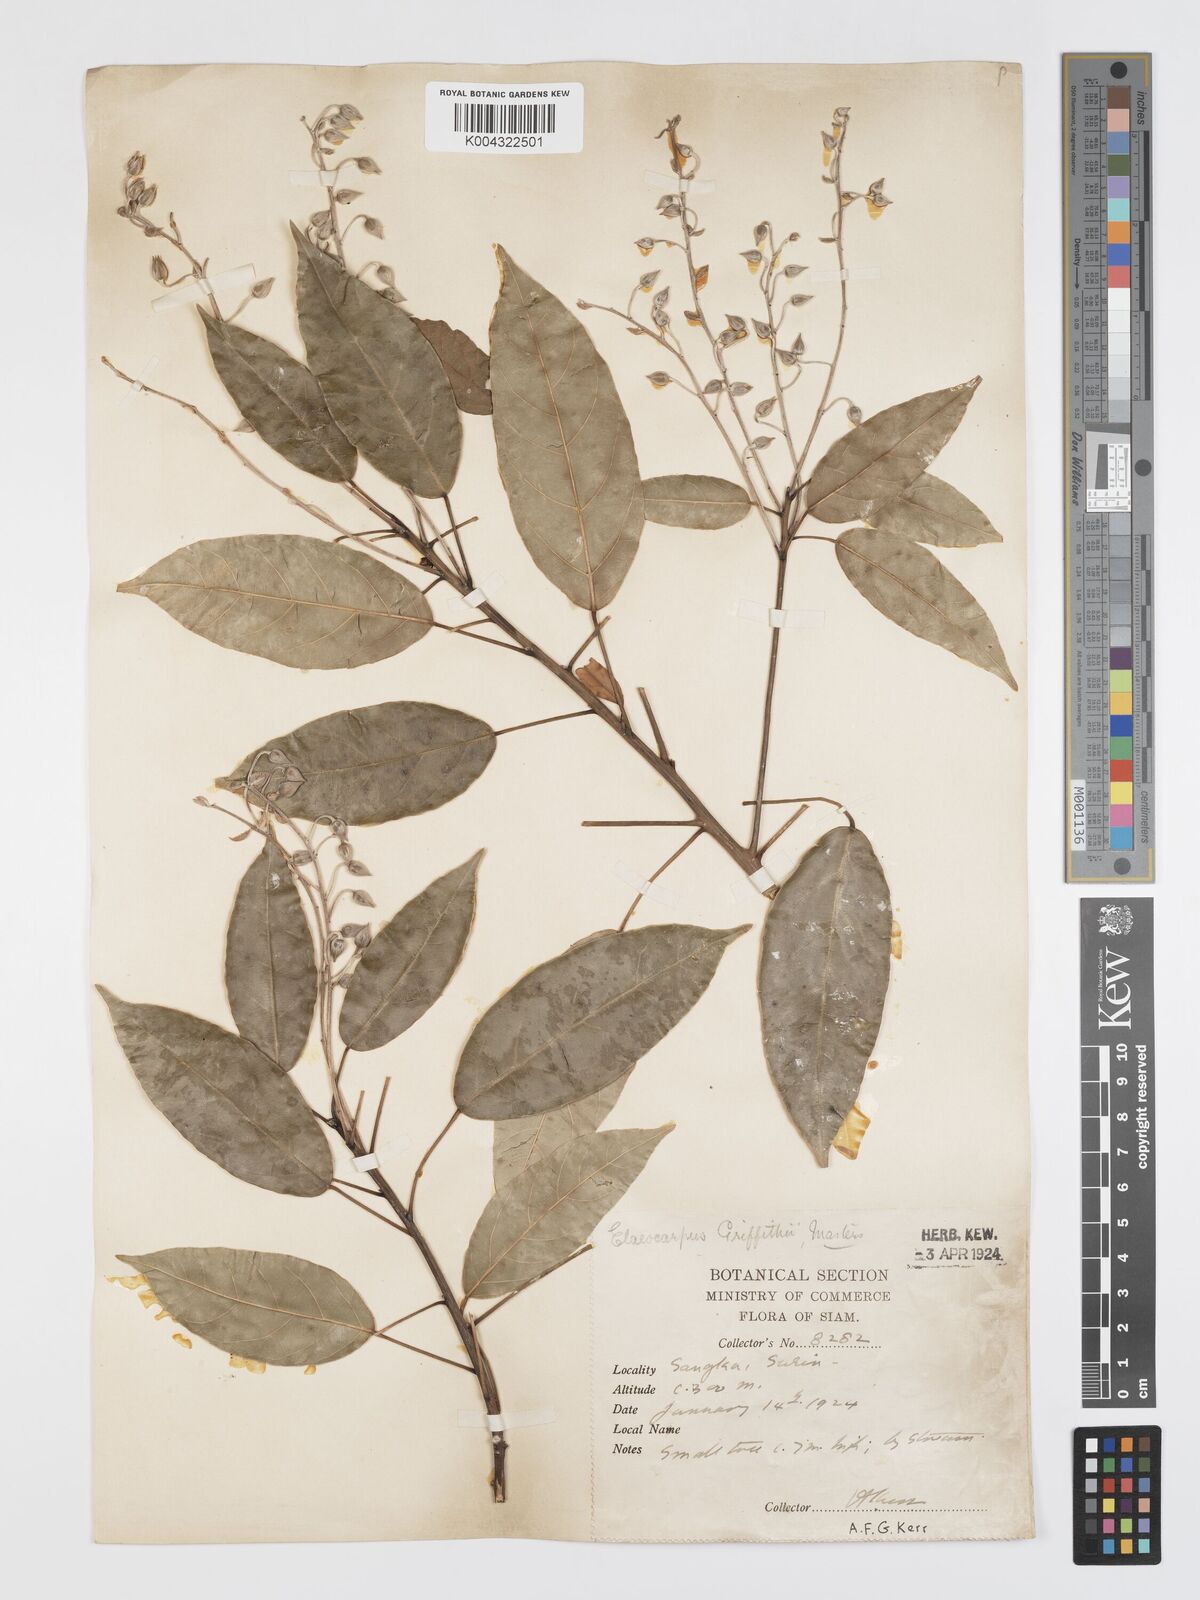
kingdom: Plantae
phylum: Tracheophyta
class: Magnoliopsida
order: Oxalidales
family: Elaeocarpaceae
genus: Elaeocarpus
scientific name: Elaeocarpus griffithii
